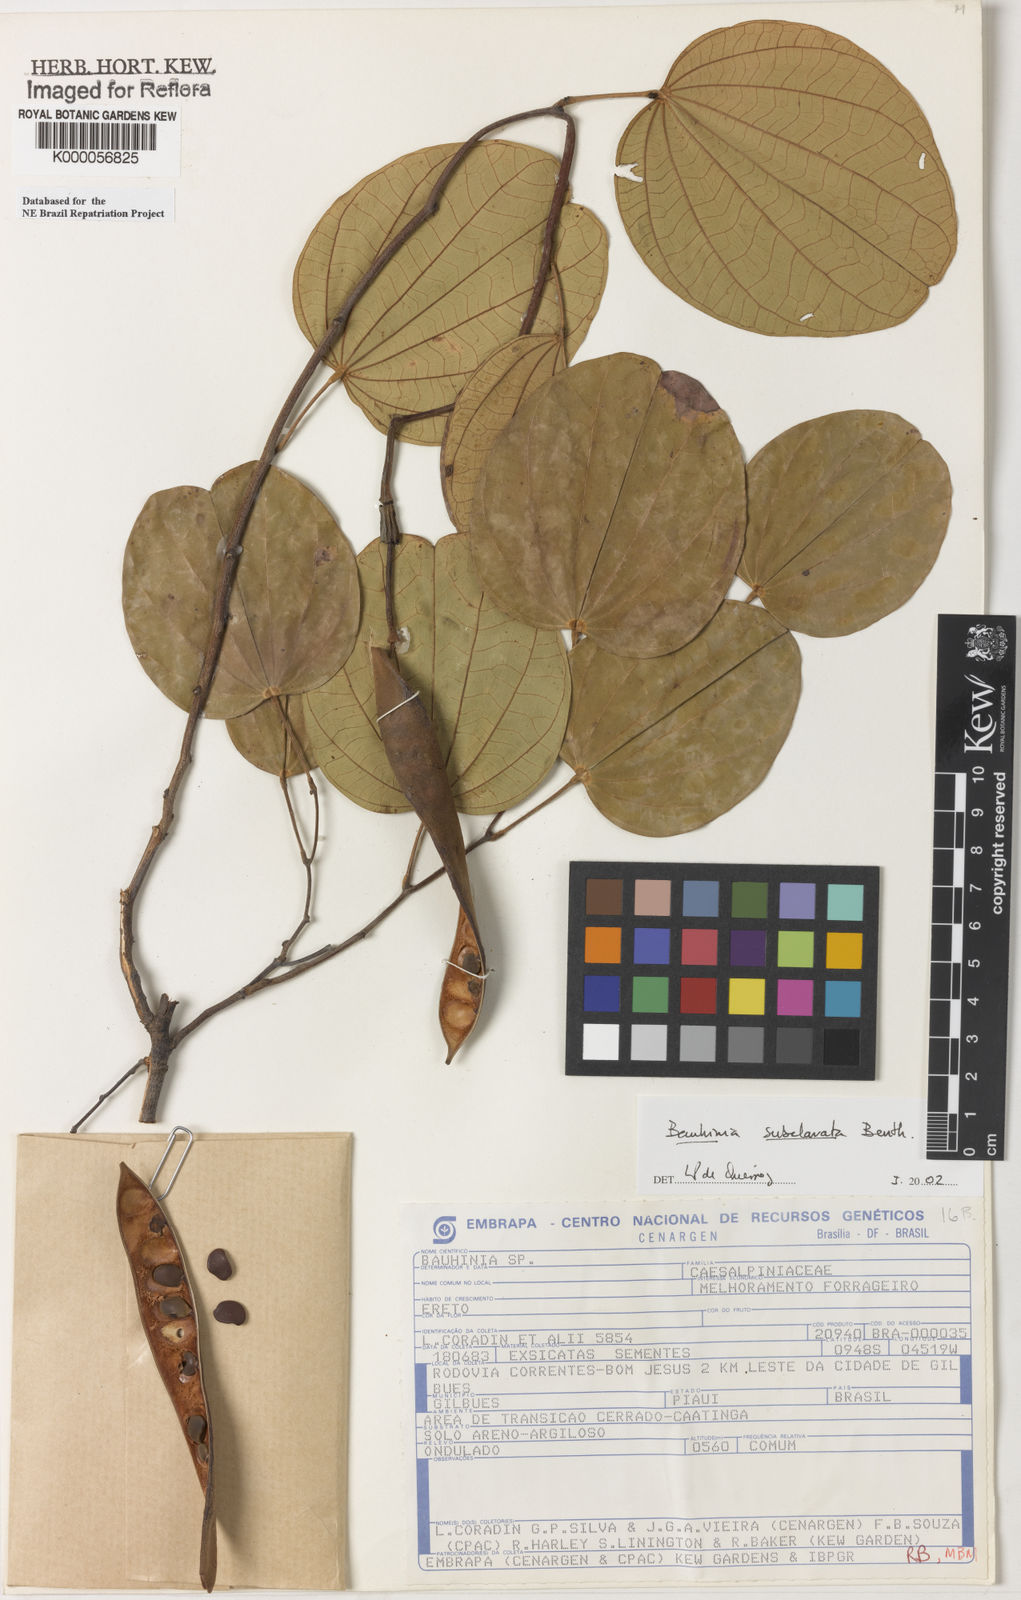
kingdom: Plantae
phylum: Tracheophyta
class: Magnoliopsida
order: Fabales
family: Fabaceae
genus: Bauhinia
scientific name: Bauhinia subclavata
